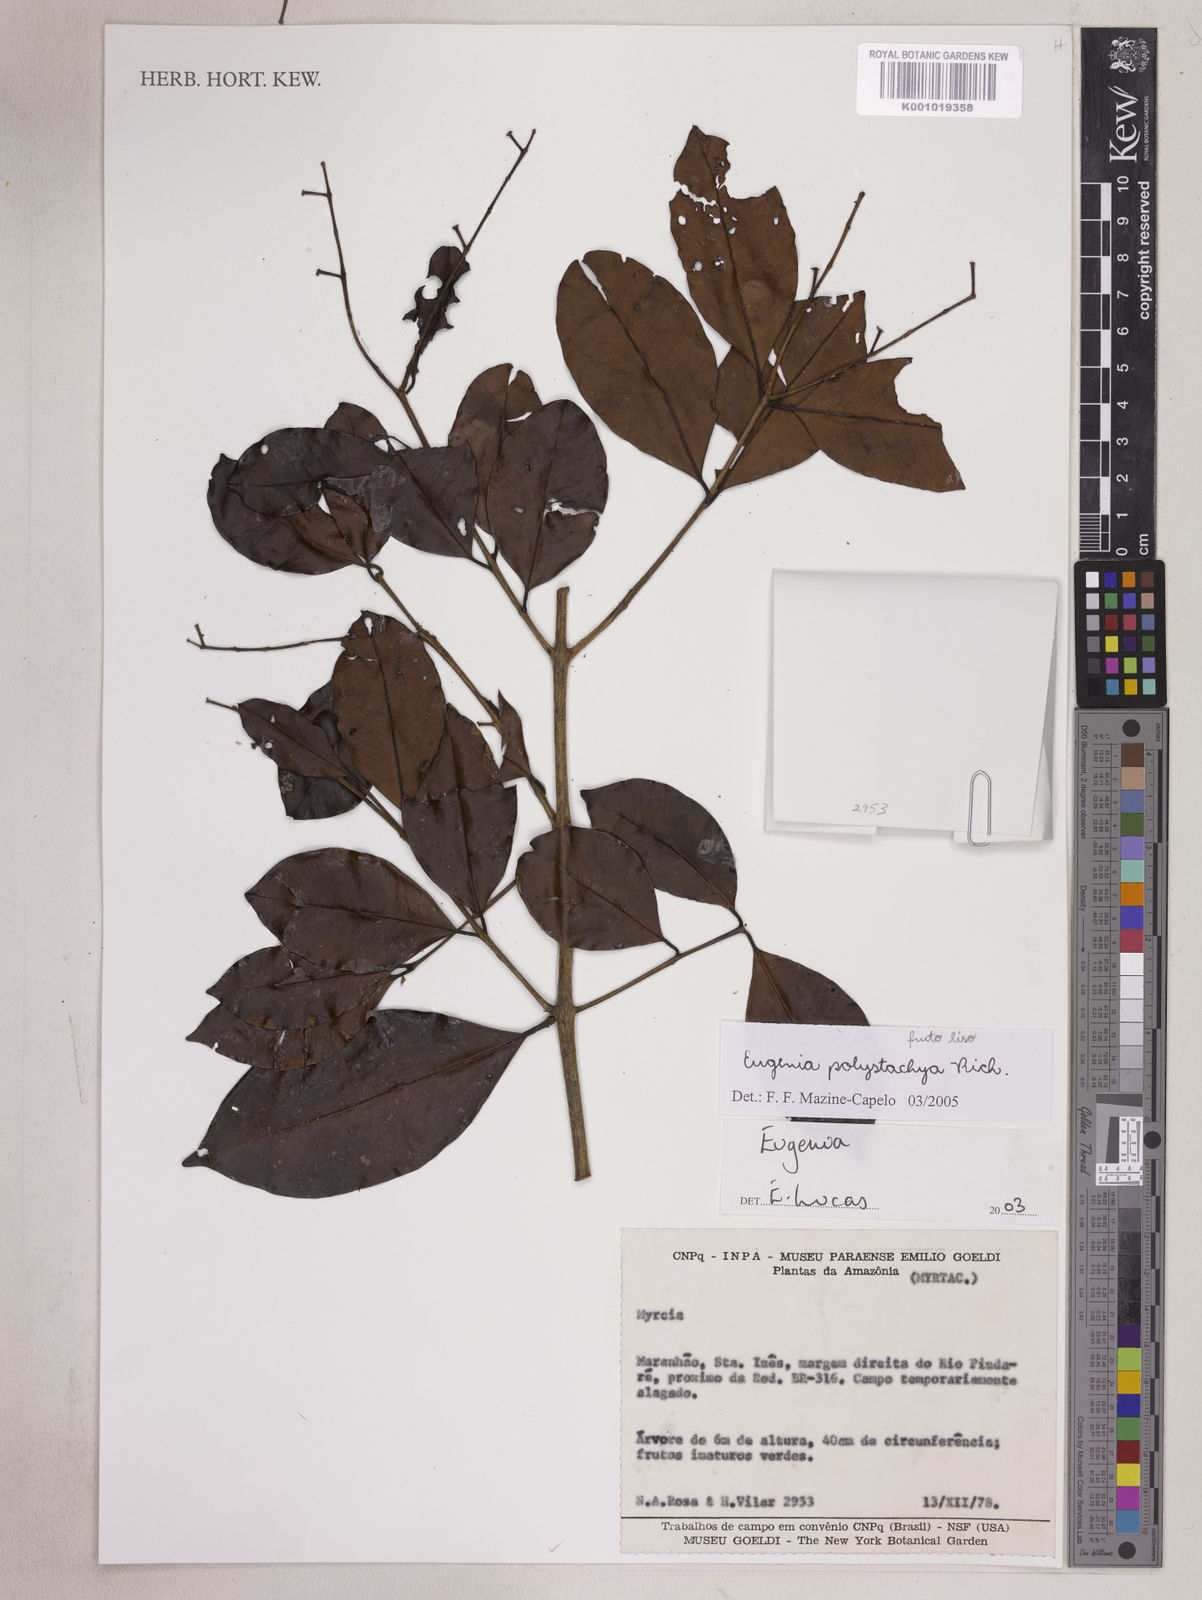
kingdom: Plantae
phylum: Tracheophyta
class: Magnoliopsida
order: Myrtales
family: Myrtaceae
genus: Eugenia
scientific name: Eugenia polystachya
